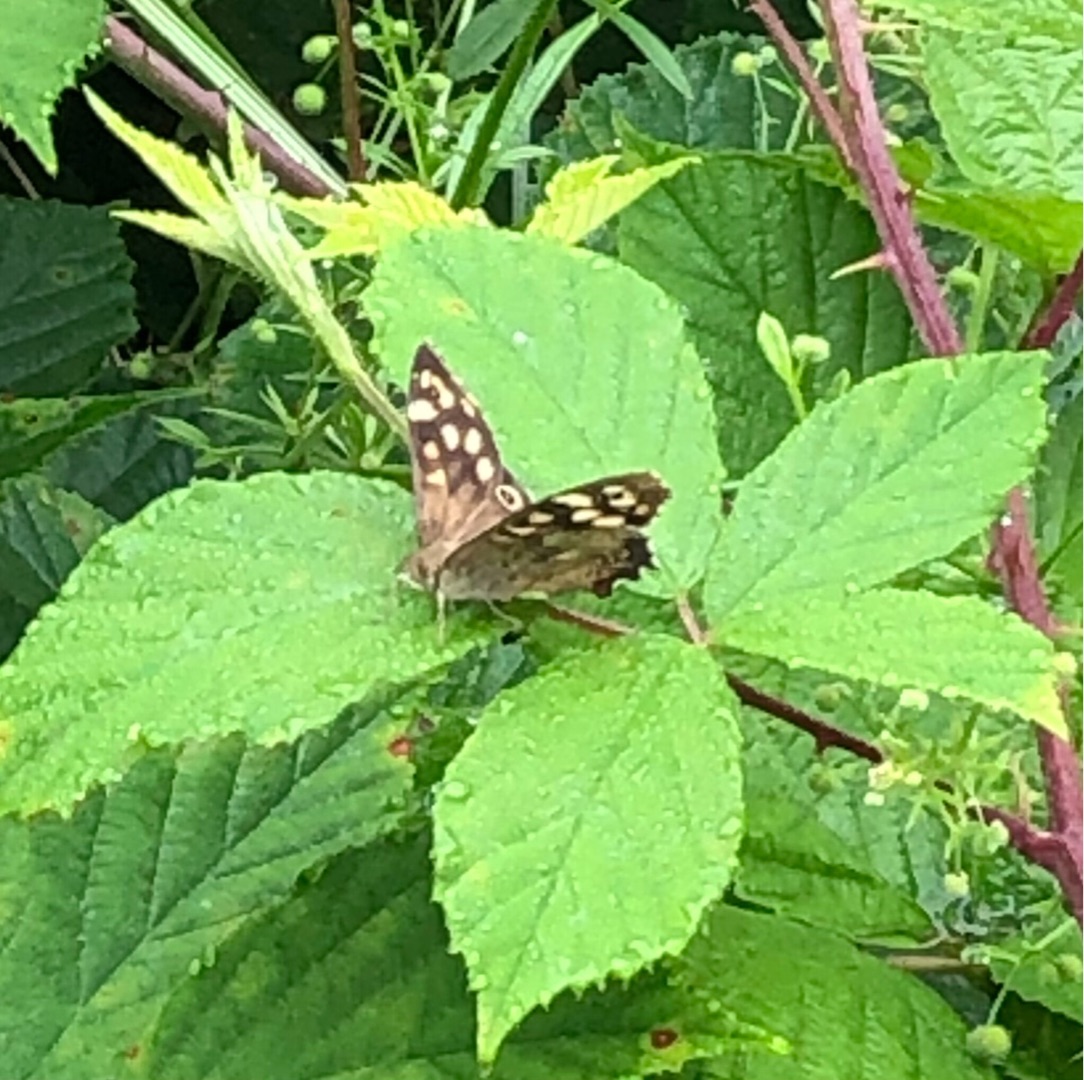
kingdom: Animalia
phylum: Arthropoda
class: Insecta
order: Lepidoptera
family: Nymphalidae
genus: Pararge
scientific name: Pararge aegeria
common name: Skovrandøje
